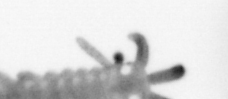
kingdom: Animalia
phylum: Annelida
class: Polychaeta
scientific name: Polychaeta
